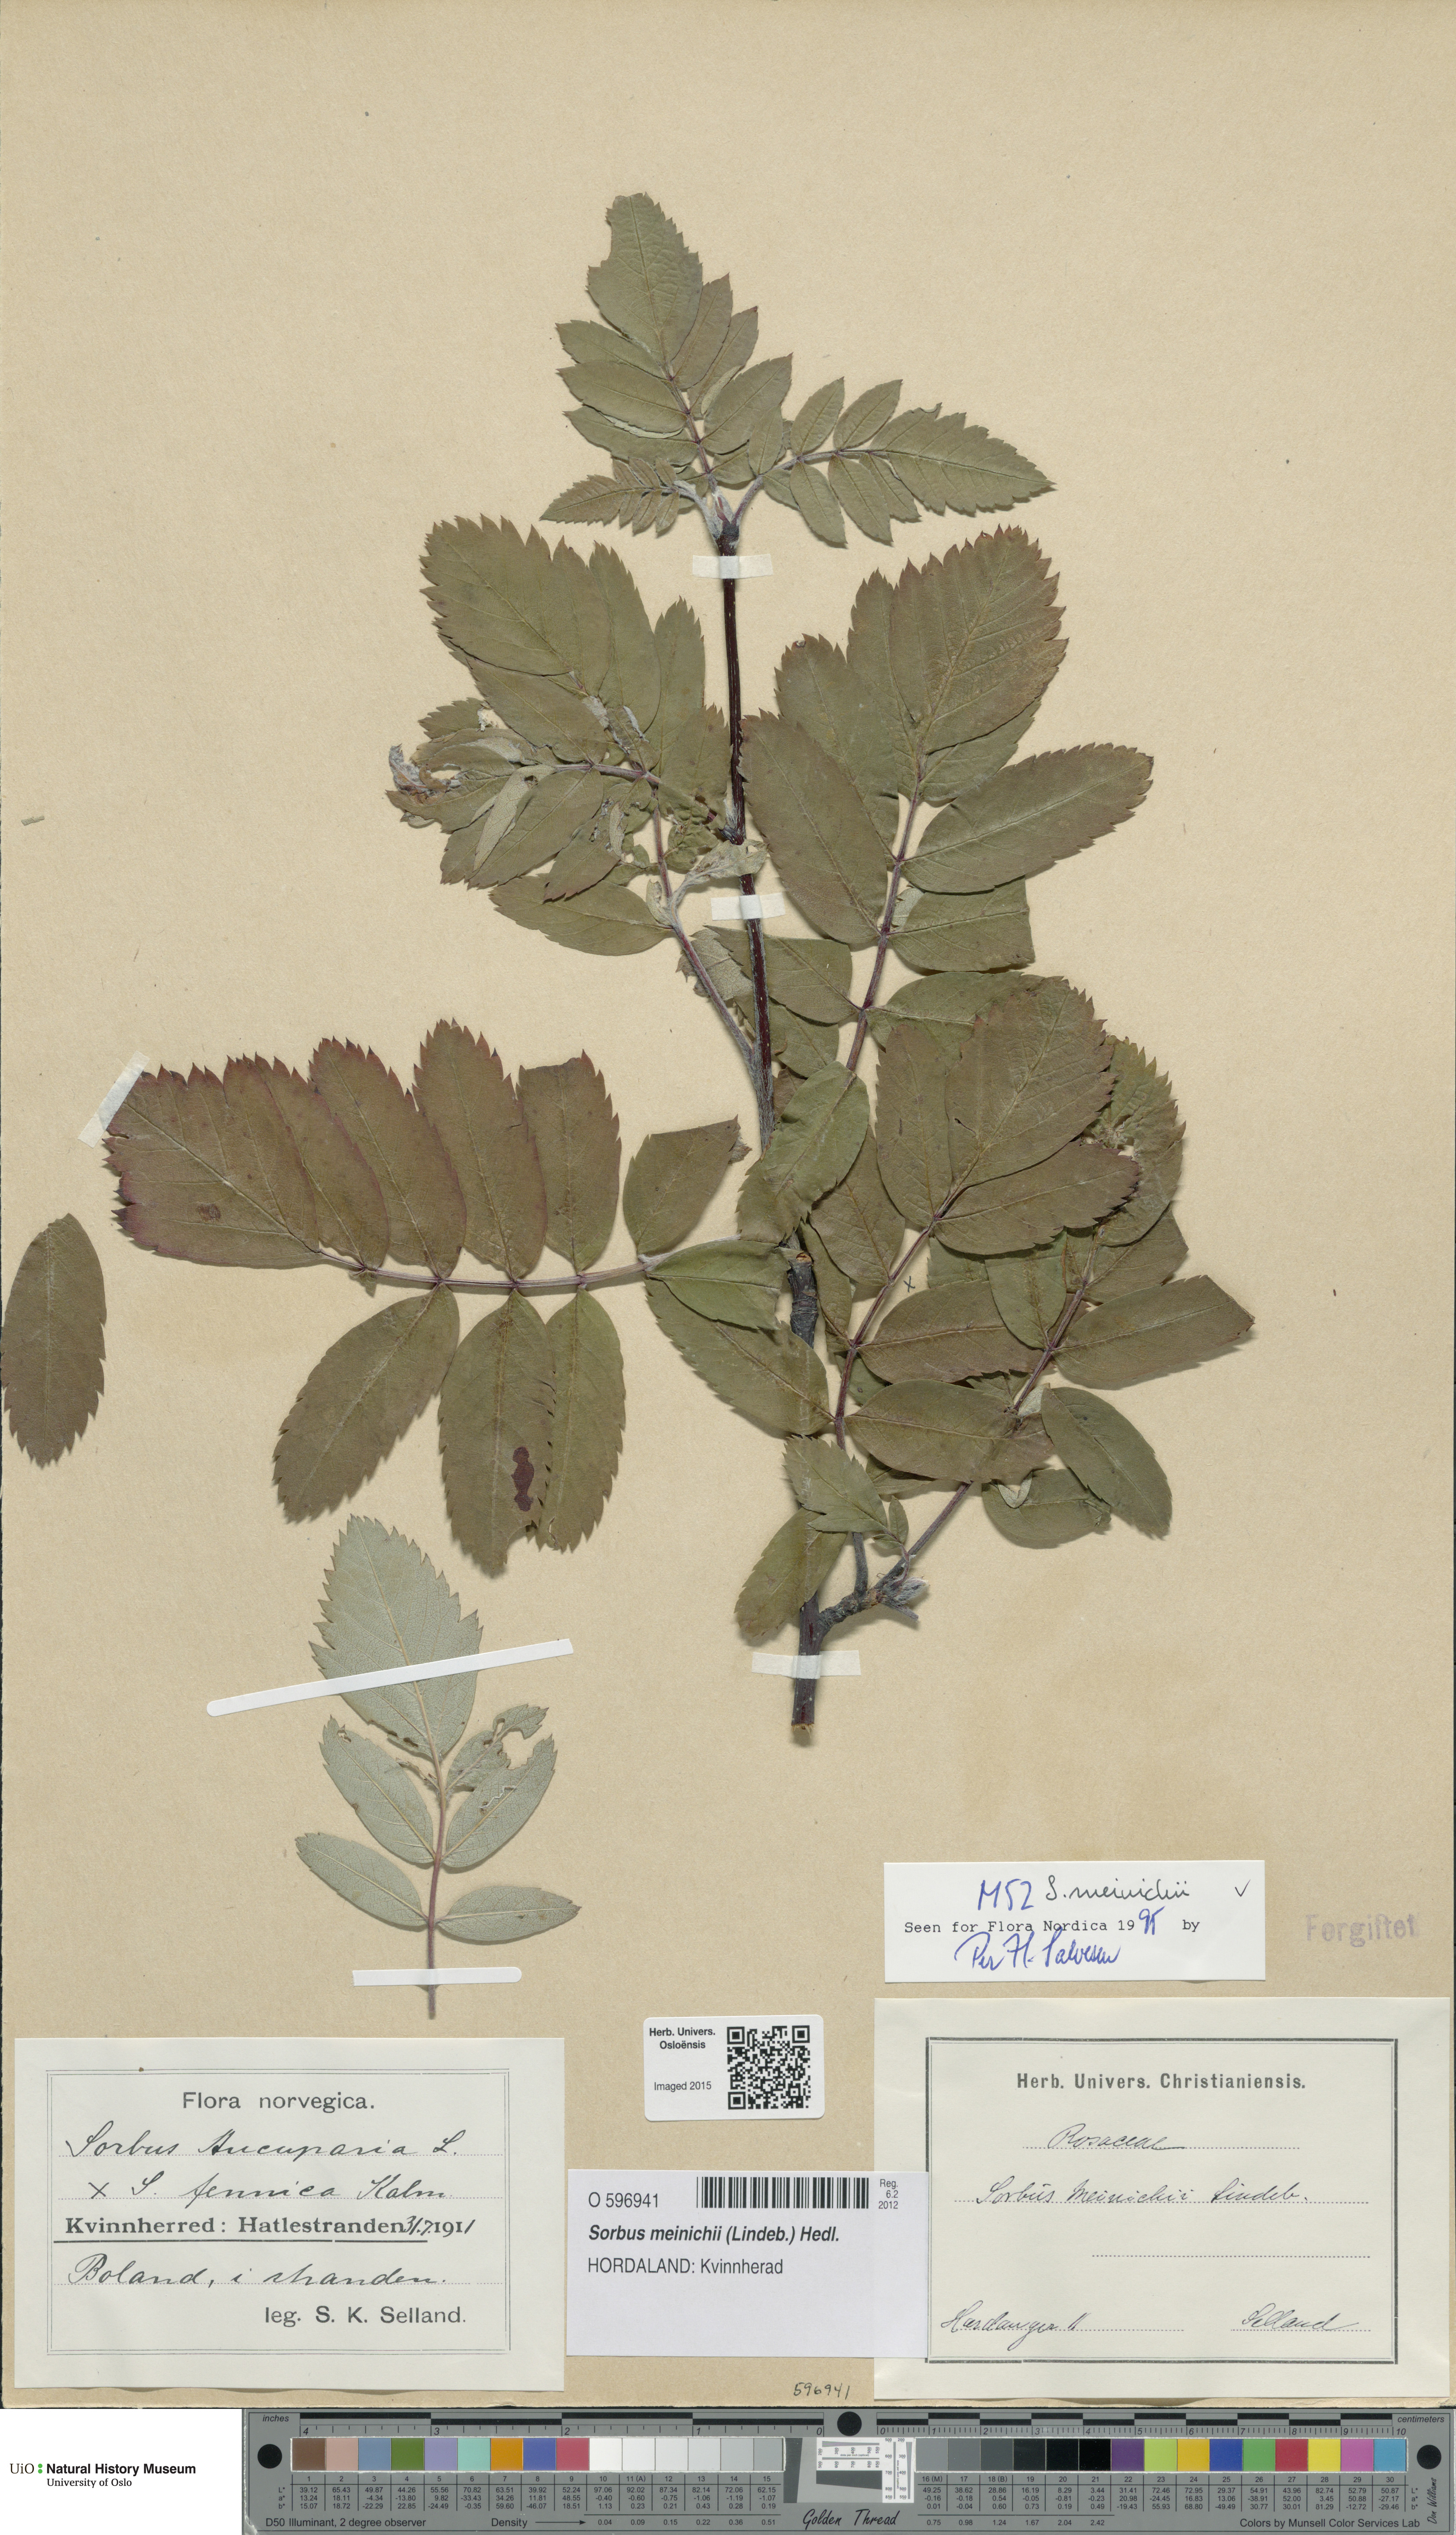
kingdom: Plantae
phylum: Tracheophyta
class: Magnoliopsida
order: Rosales
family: Rosaceae
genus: Hedlundia
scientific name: Hedlundia meinichii
